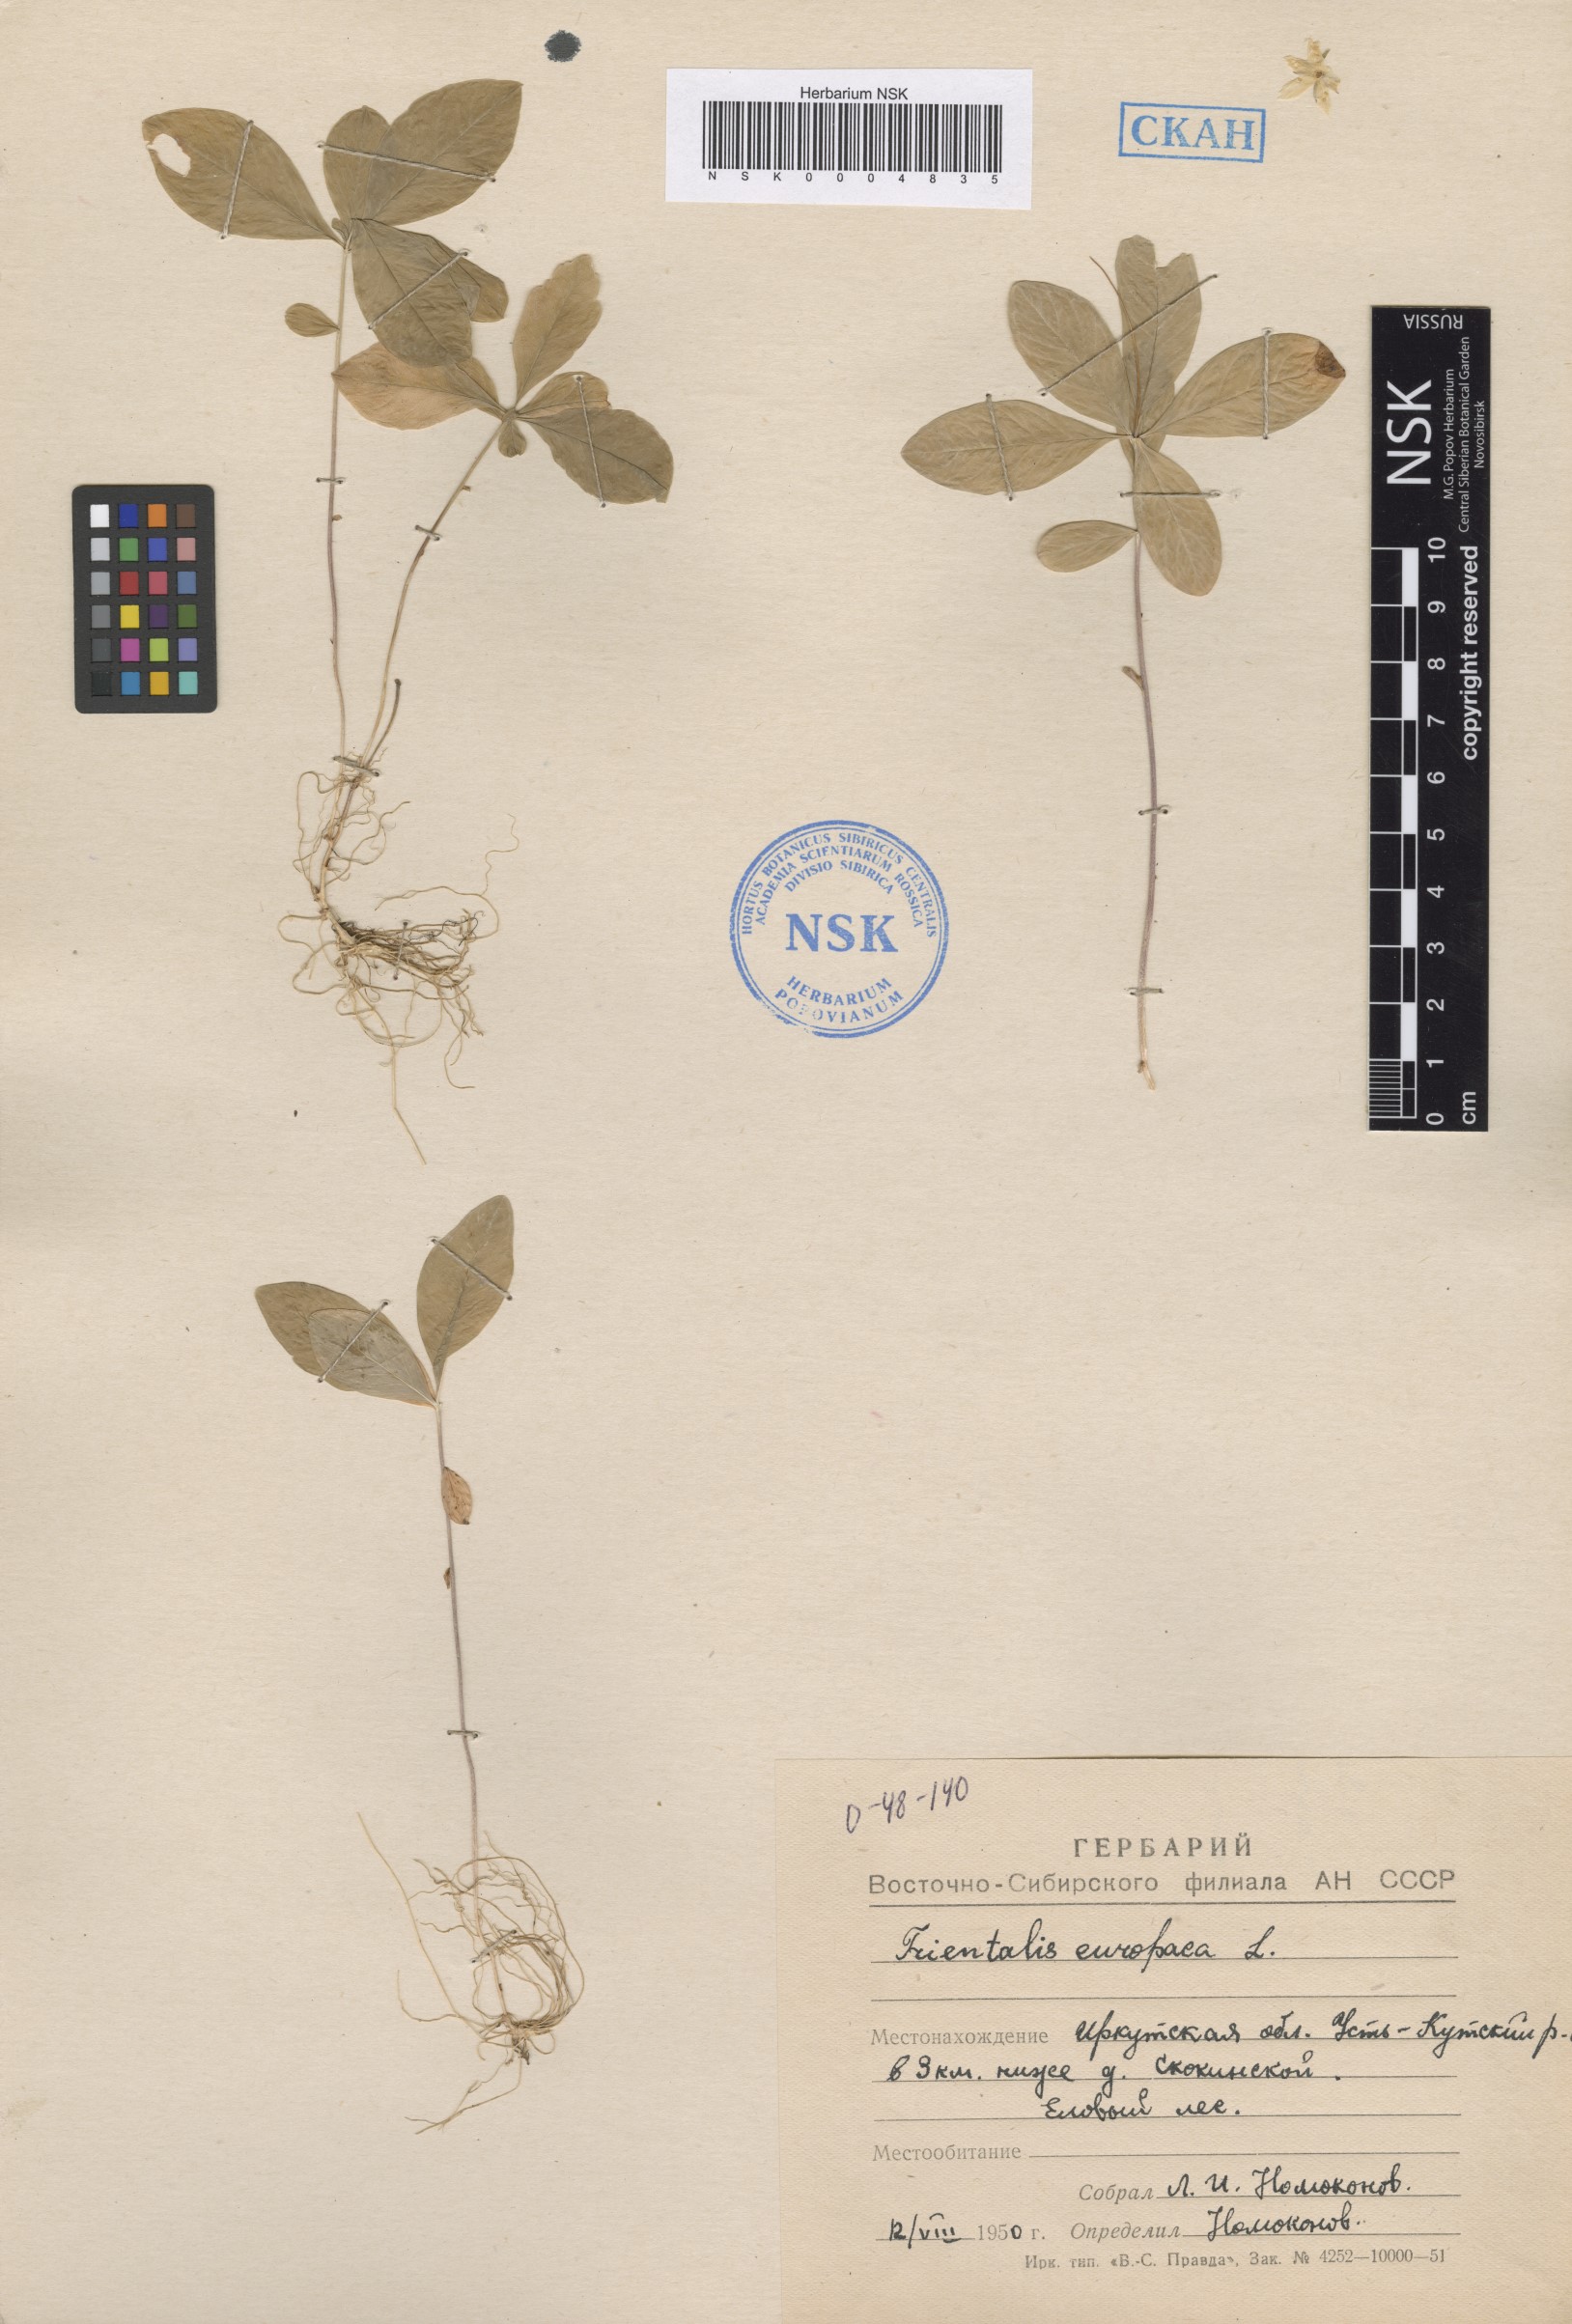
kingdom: Plantae
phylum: Tracheophyta
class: Magnoliopsida
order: Ericales
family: Primulaceae
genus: Lysimachia
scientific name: Lysimachia europaea
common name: Arctic starflower
